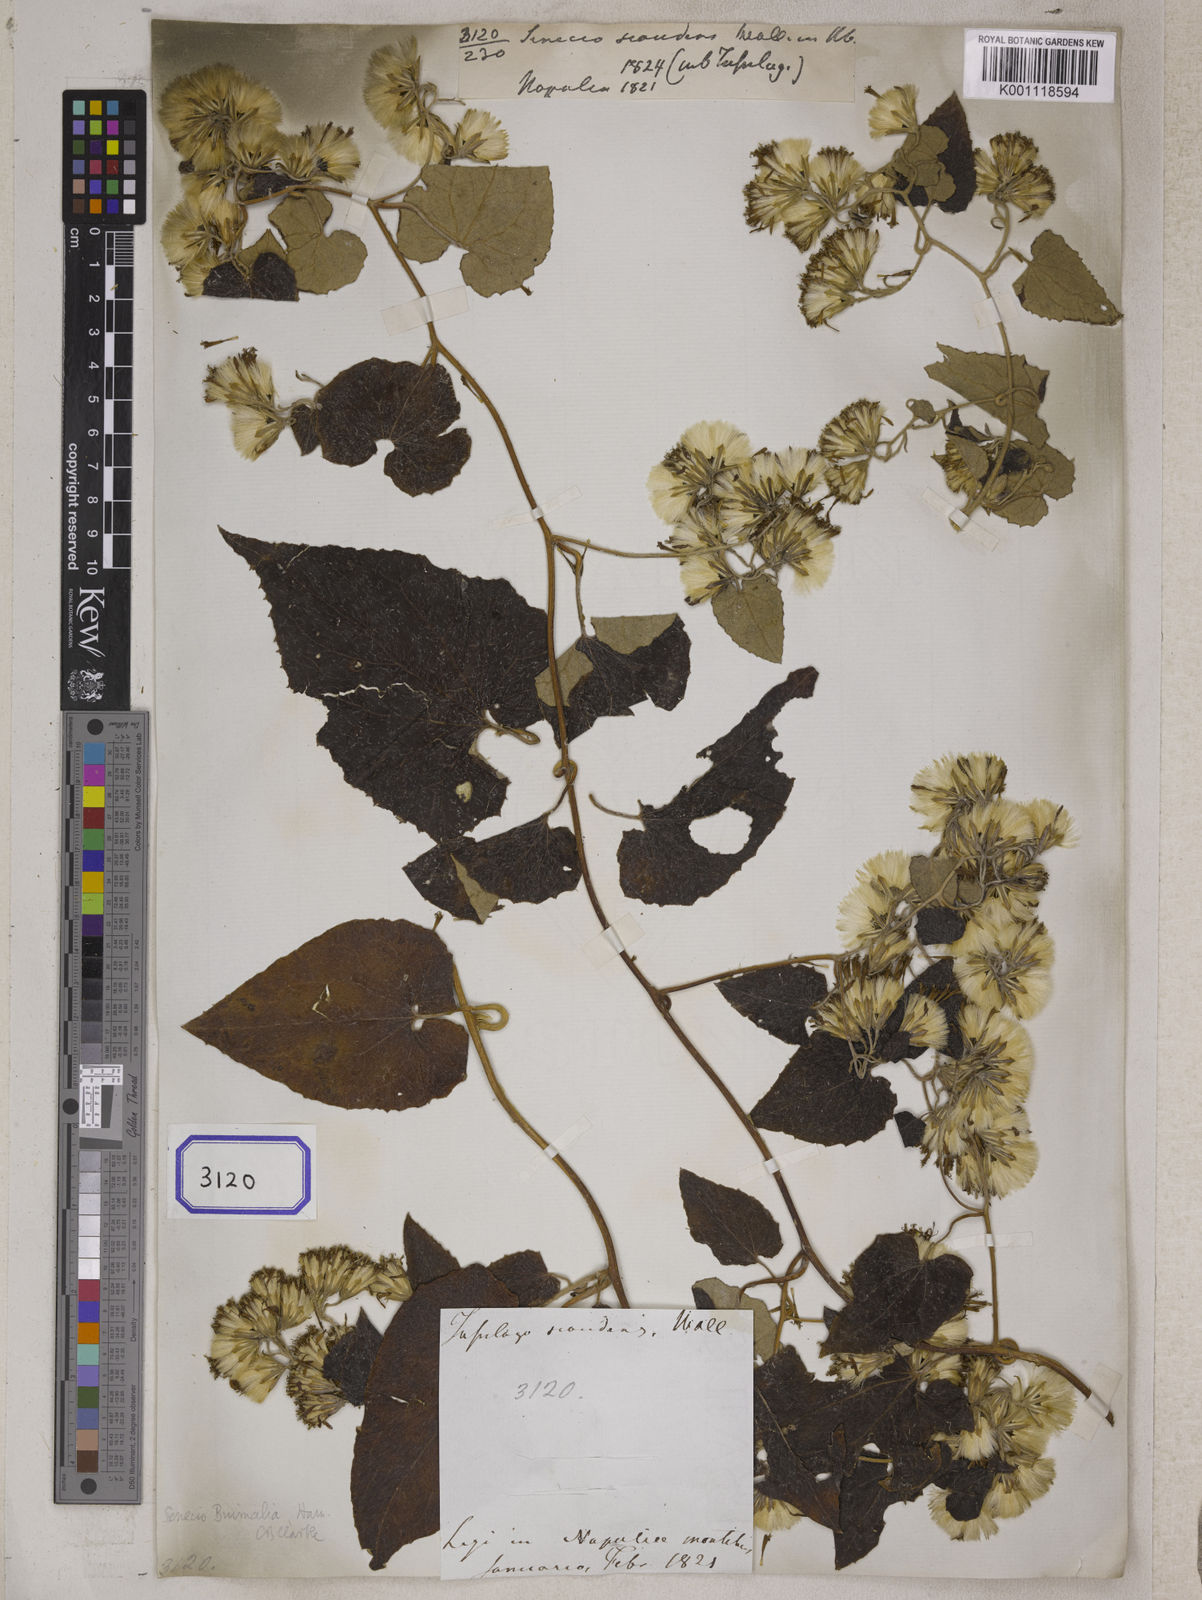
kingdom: Plantae
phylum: Tracheophyta
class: Magnoliopsida
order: Asterales
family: Asteraceae
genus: Cissampelopsis
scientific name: Cissampelopsis buimalia
